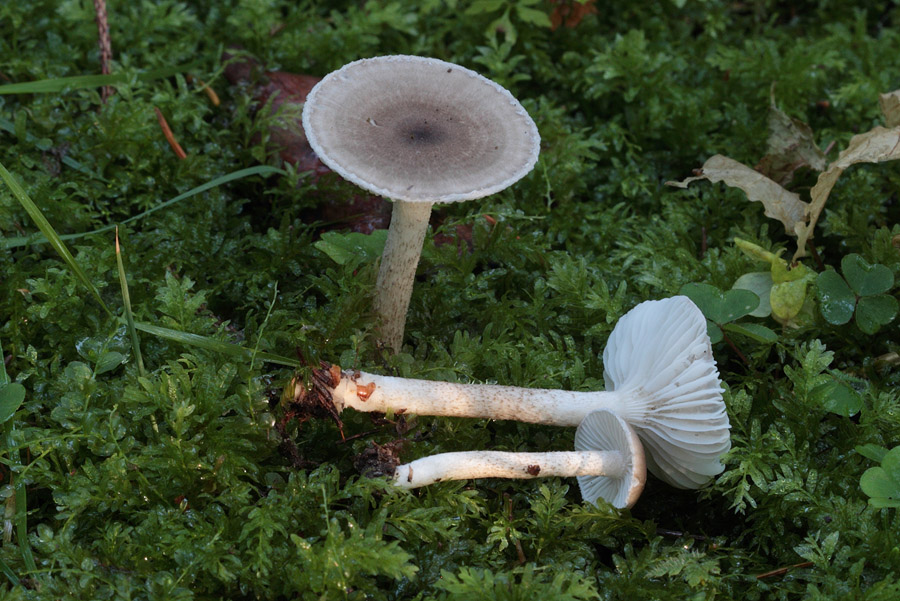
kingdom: Fungi
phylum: Basidiomycota
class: Agaricomycetes
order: Agaricales
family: Hygrophoraceae
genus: Hygrophorus
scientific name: Hygrophorus pustulatus
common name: mørkprikket sneglehat
